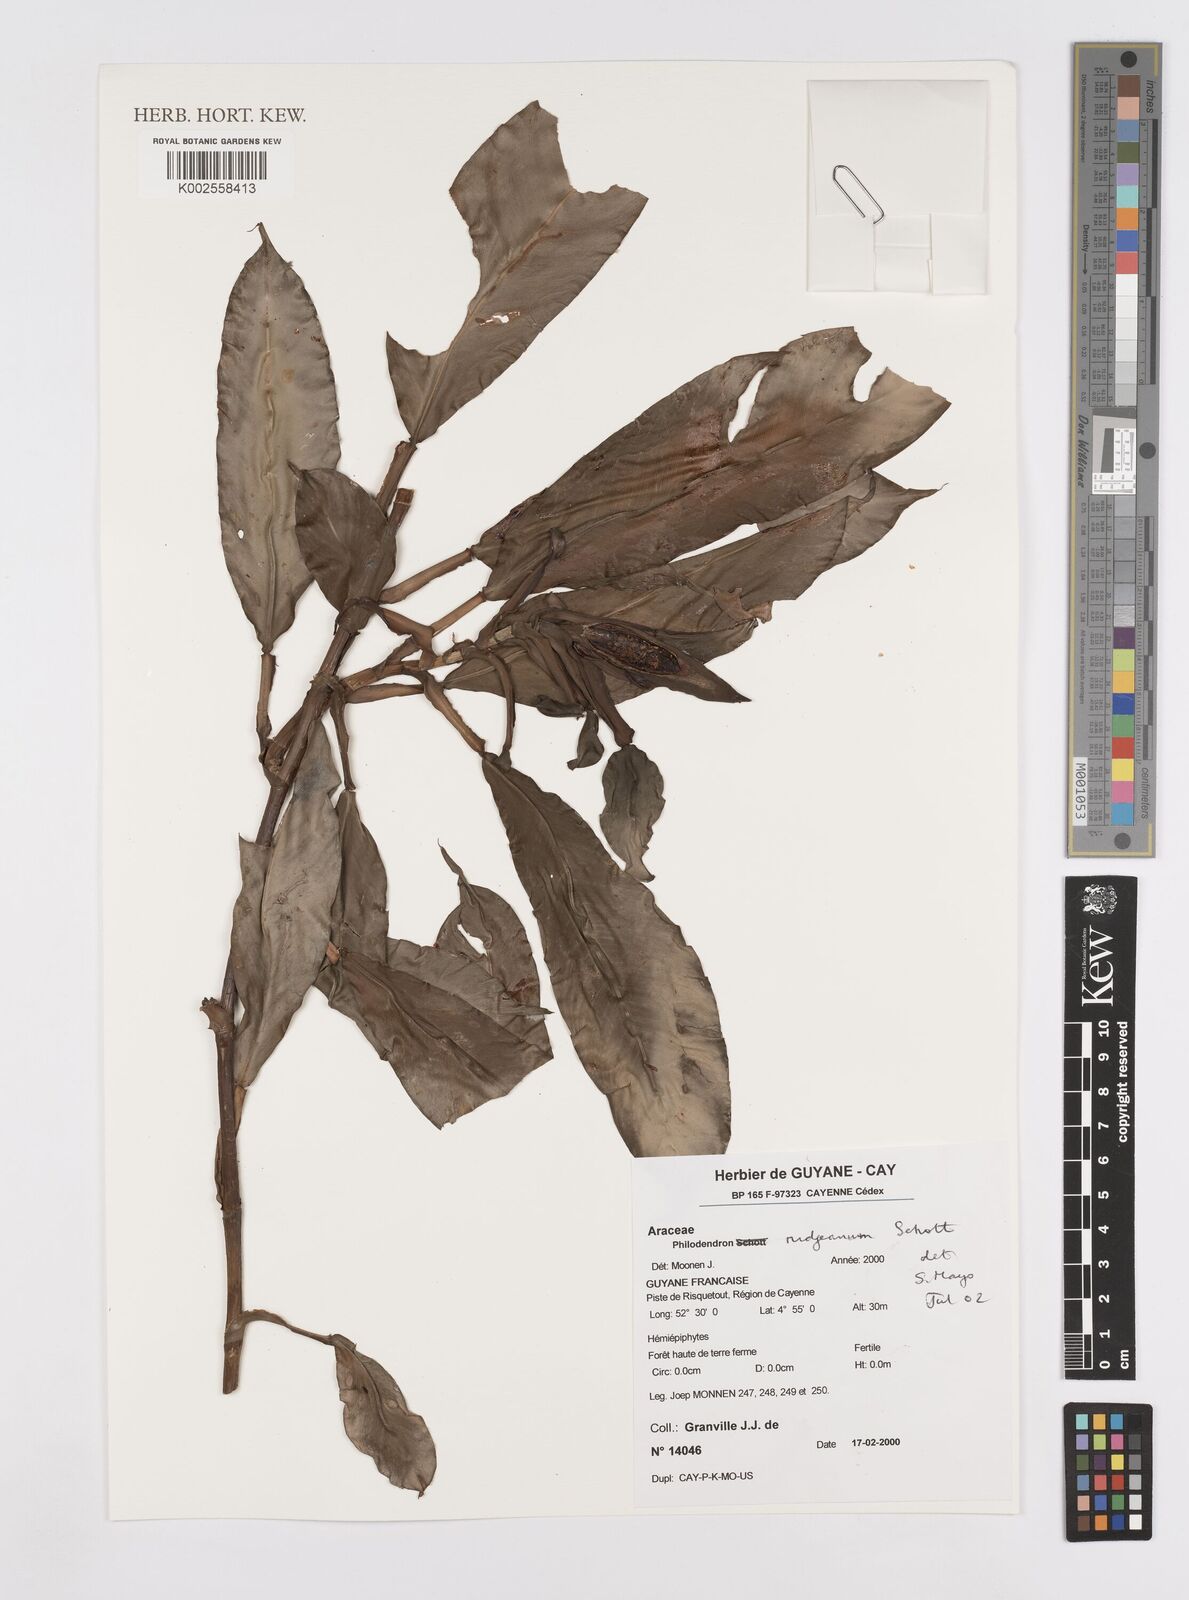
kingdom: Plantae
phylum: Tracheophyta
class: Liliopsida
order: Alismatales
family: Araceae
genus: Philodendron
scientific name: Philodendron rudgeanum
